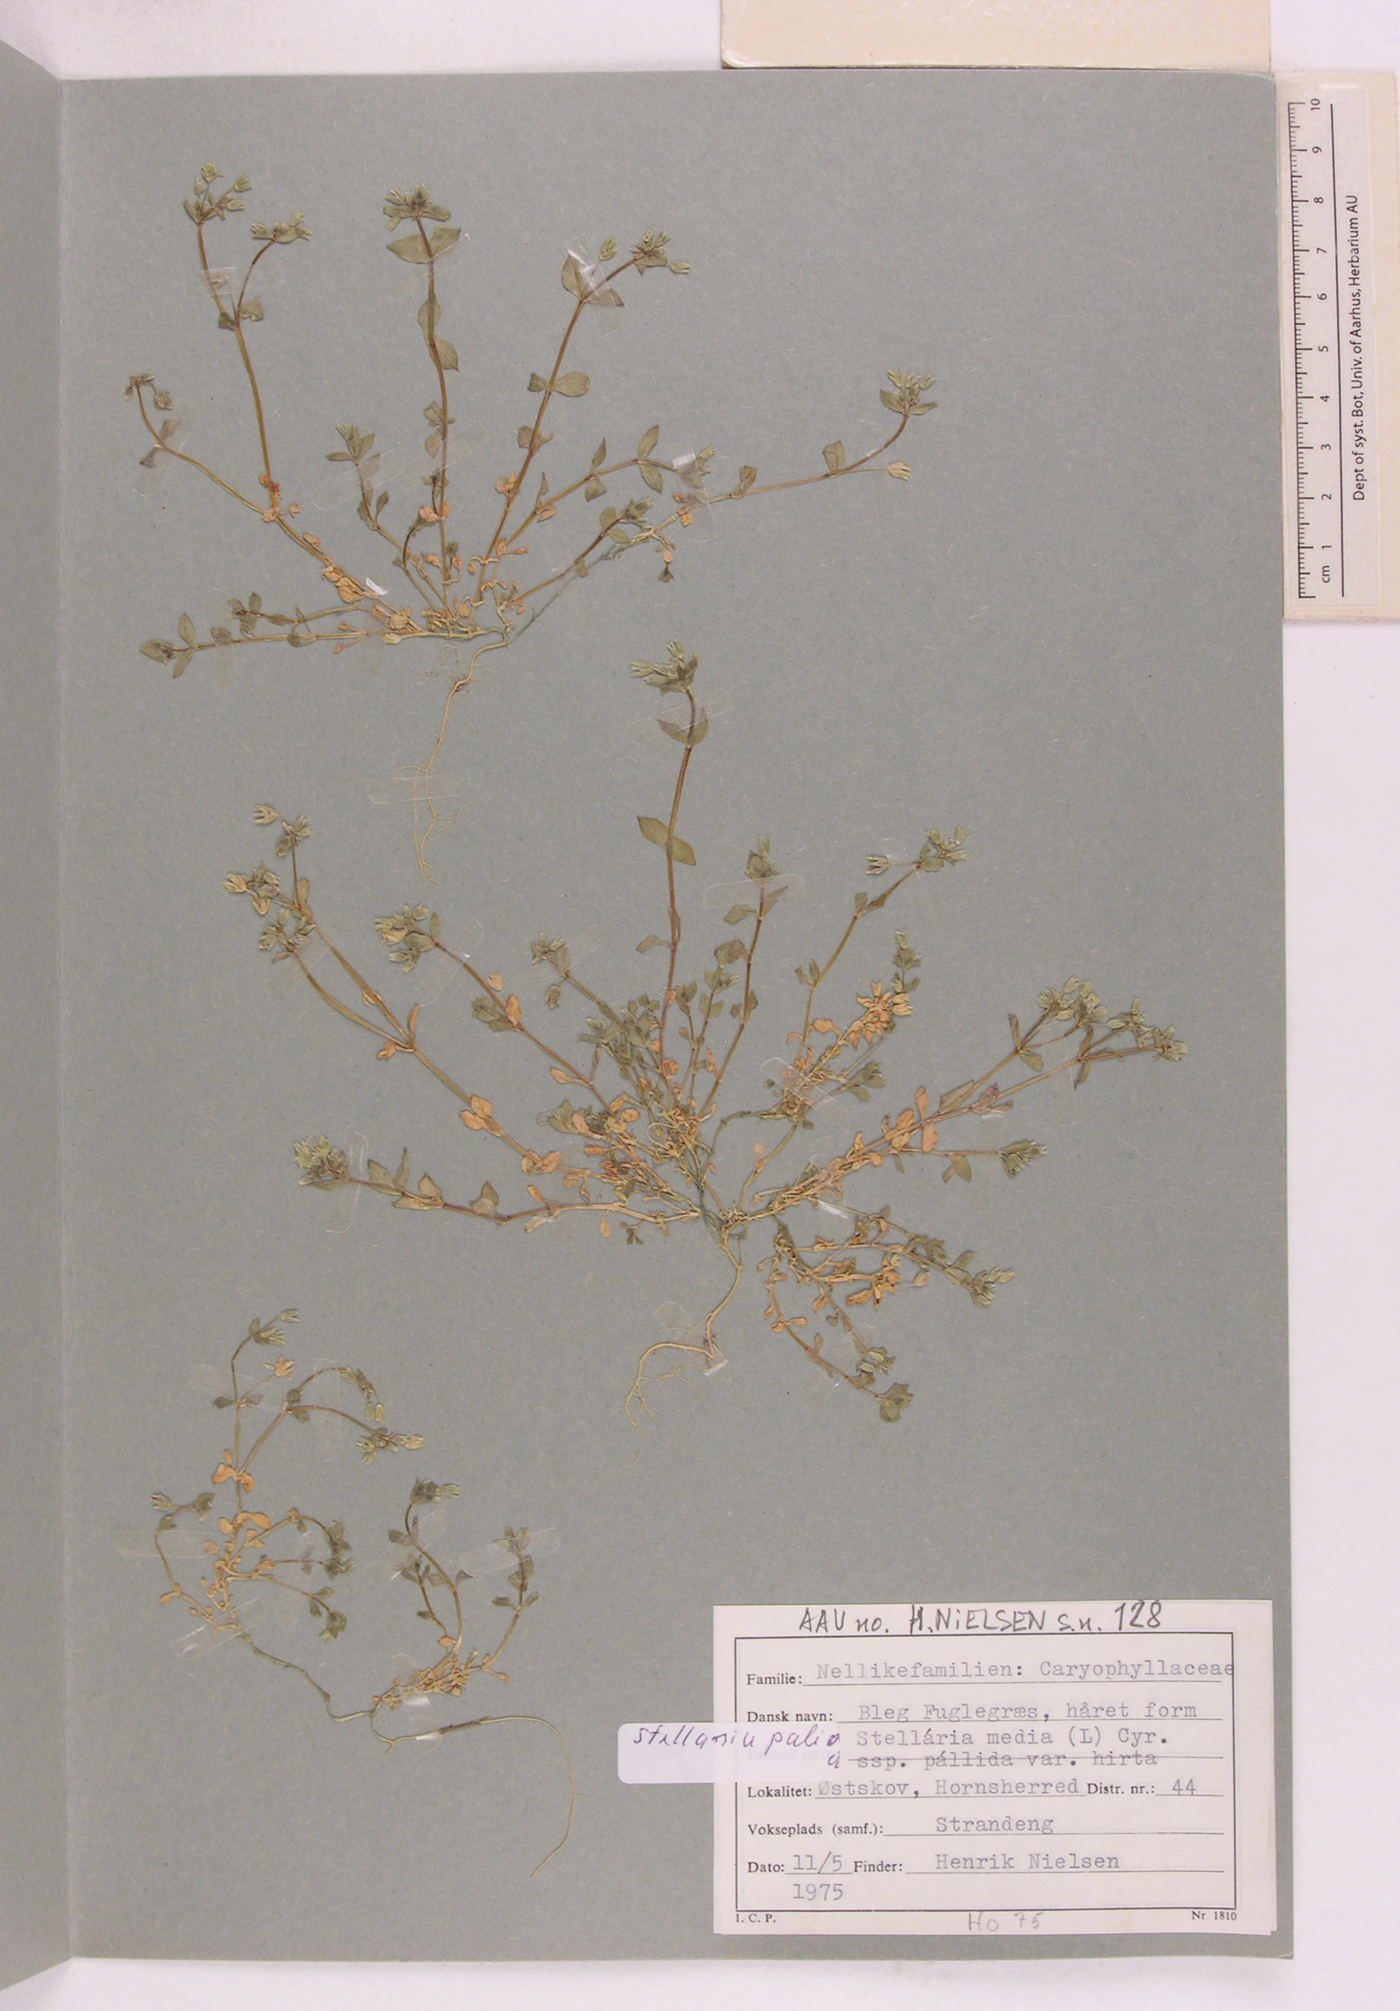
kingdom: Plantae
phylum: Tracheophyta
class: Magnoliopsida
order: Caryophyllales
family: Caryophyllaceae
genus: Stellaria
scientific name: Stellaria apetala
